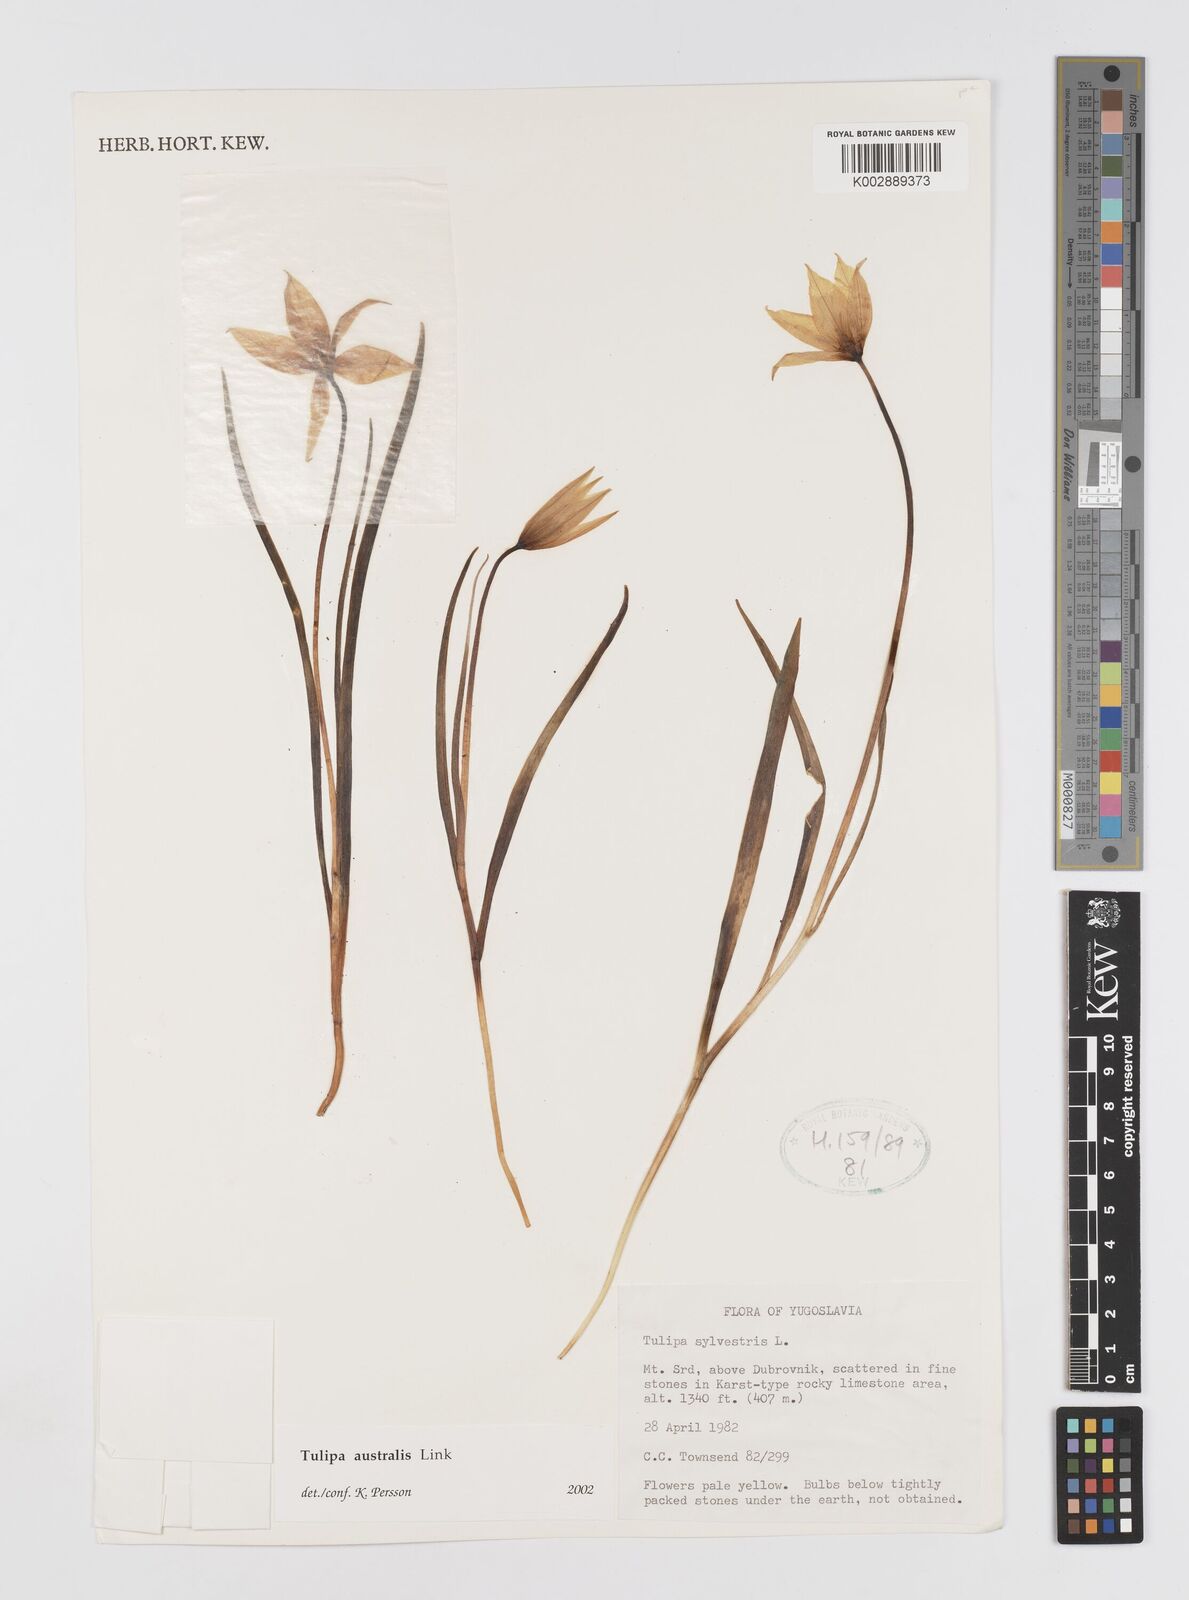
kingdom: Plantae
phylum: Tracheophyta
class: Liliopsida
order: Liliales
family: Liliaceae
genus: Tulipa
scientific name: Tulipa sylvestris
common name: Wild tulip
